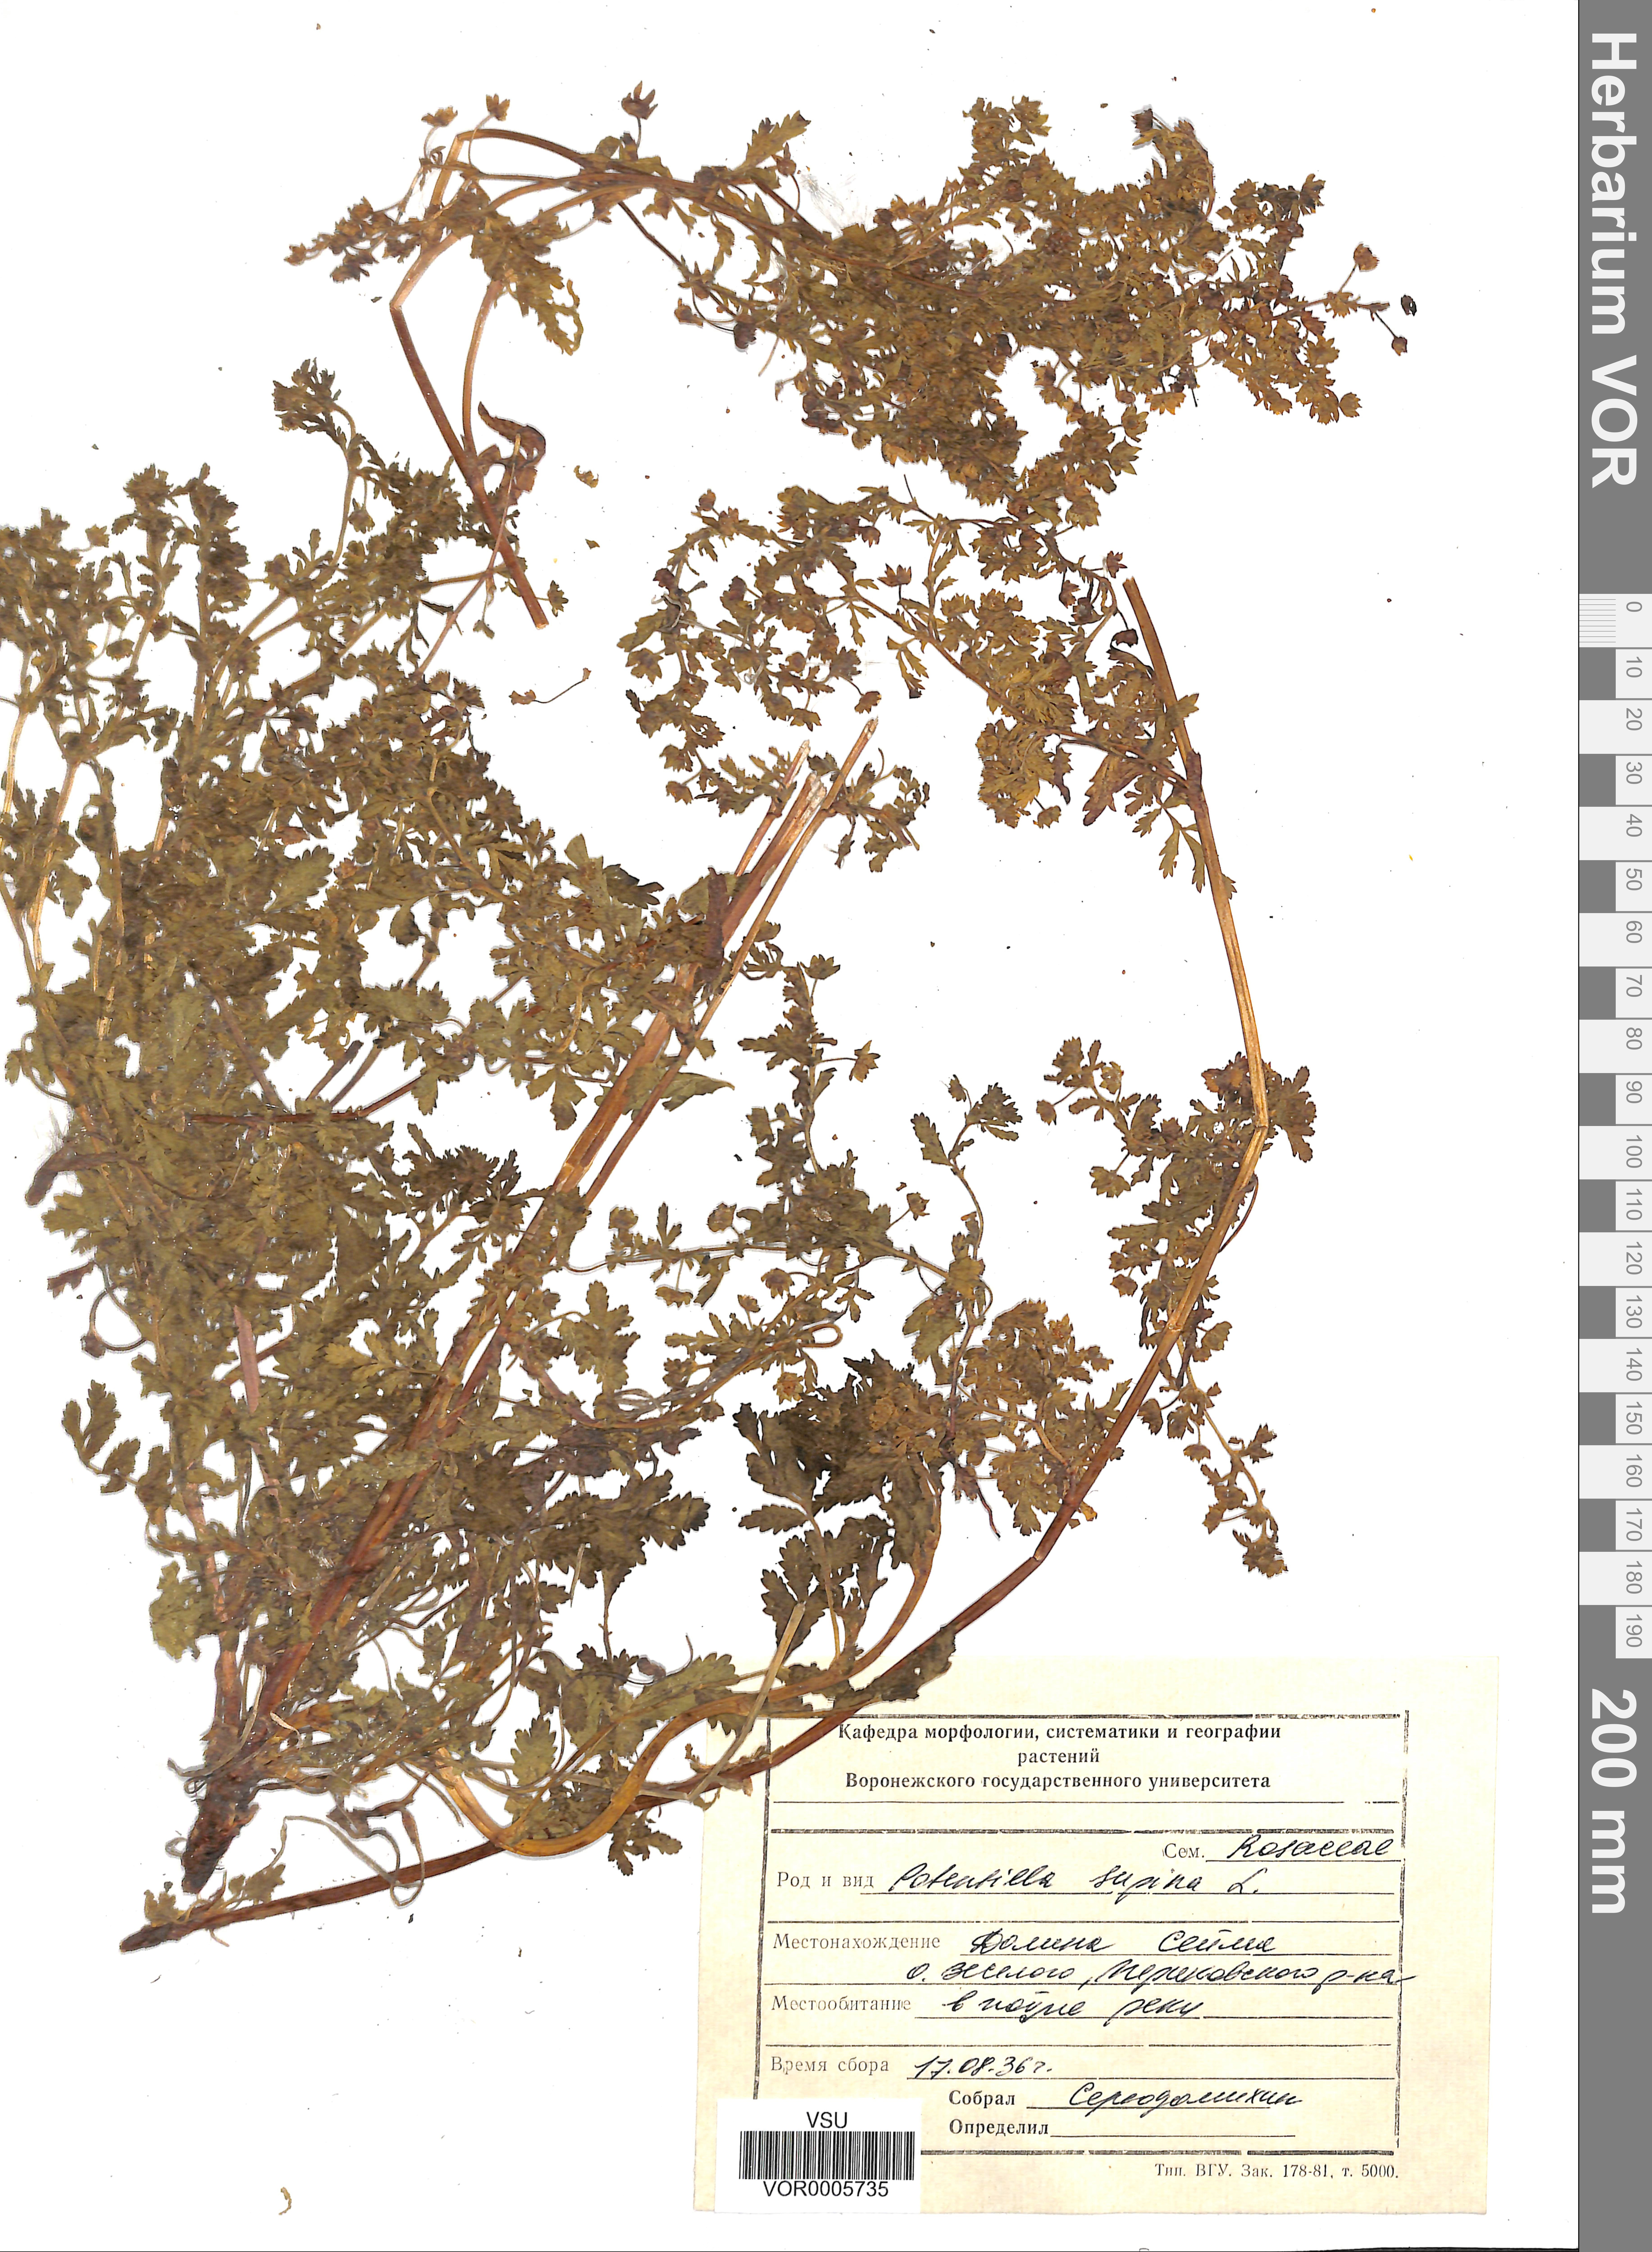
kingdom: Plantae
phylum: Tracheophyta
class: Magnoliopsida
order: Rosales
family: Rosaceae
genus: Potentilla
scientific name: Potentilla supina
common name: Prostrate cinquefoil
